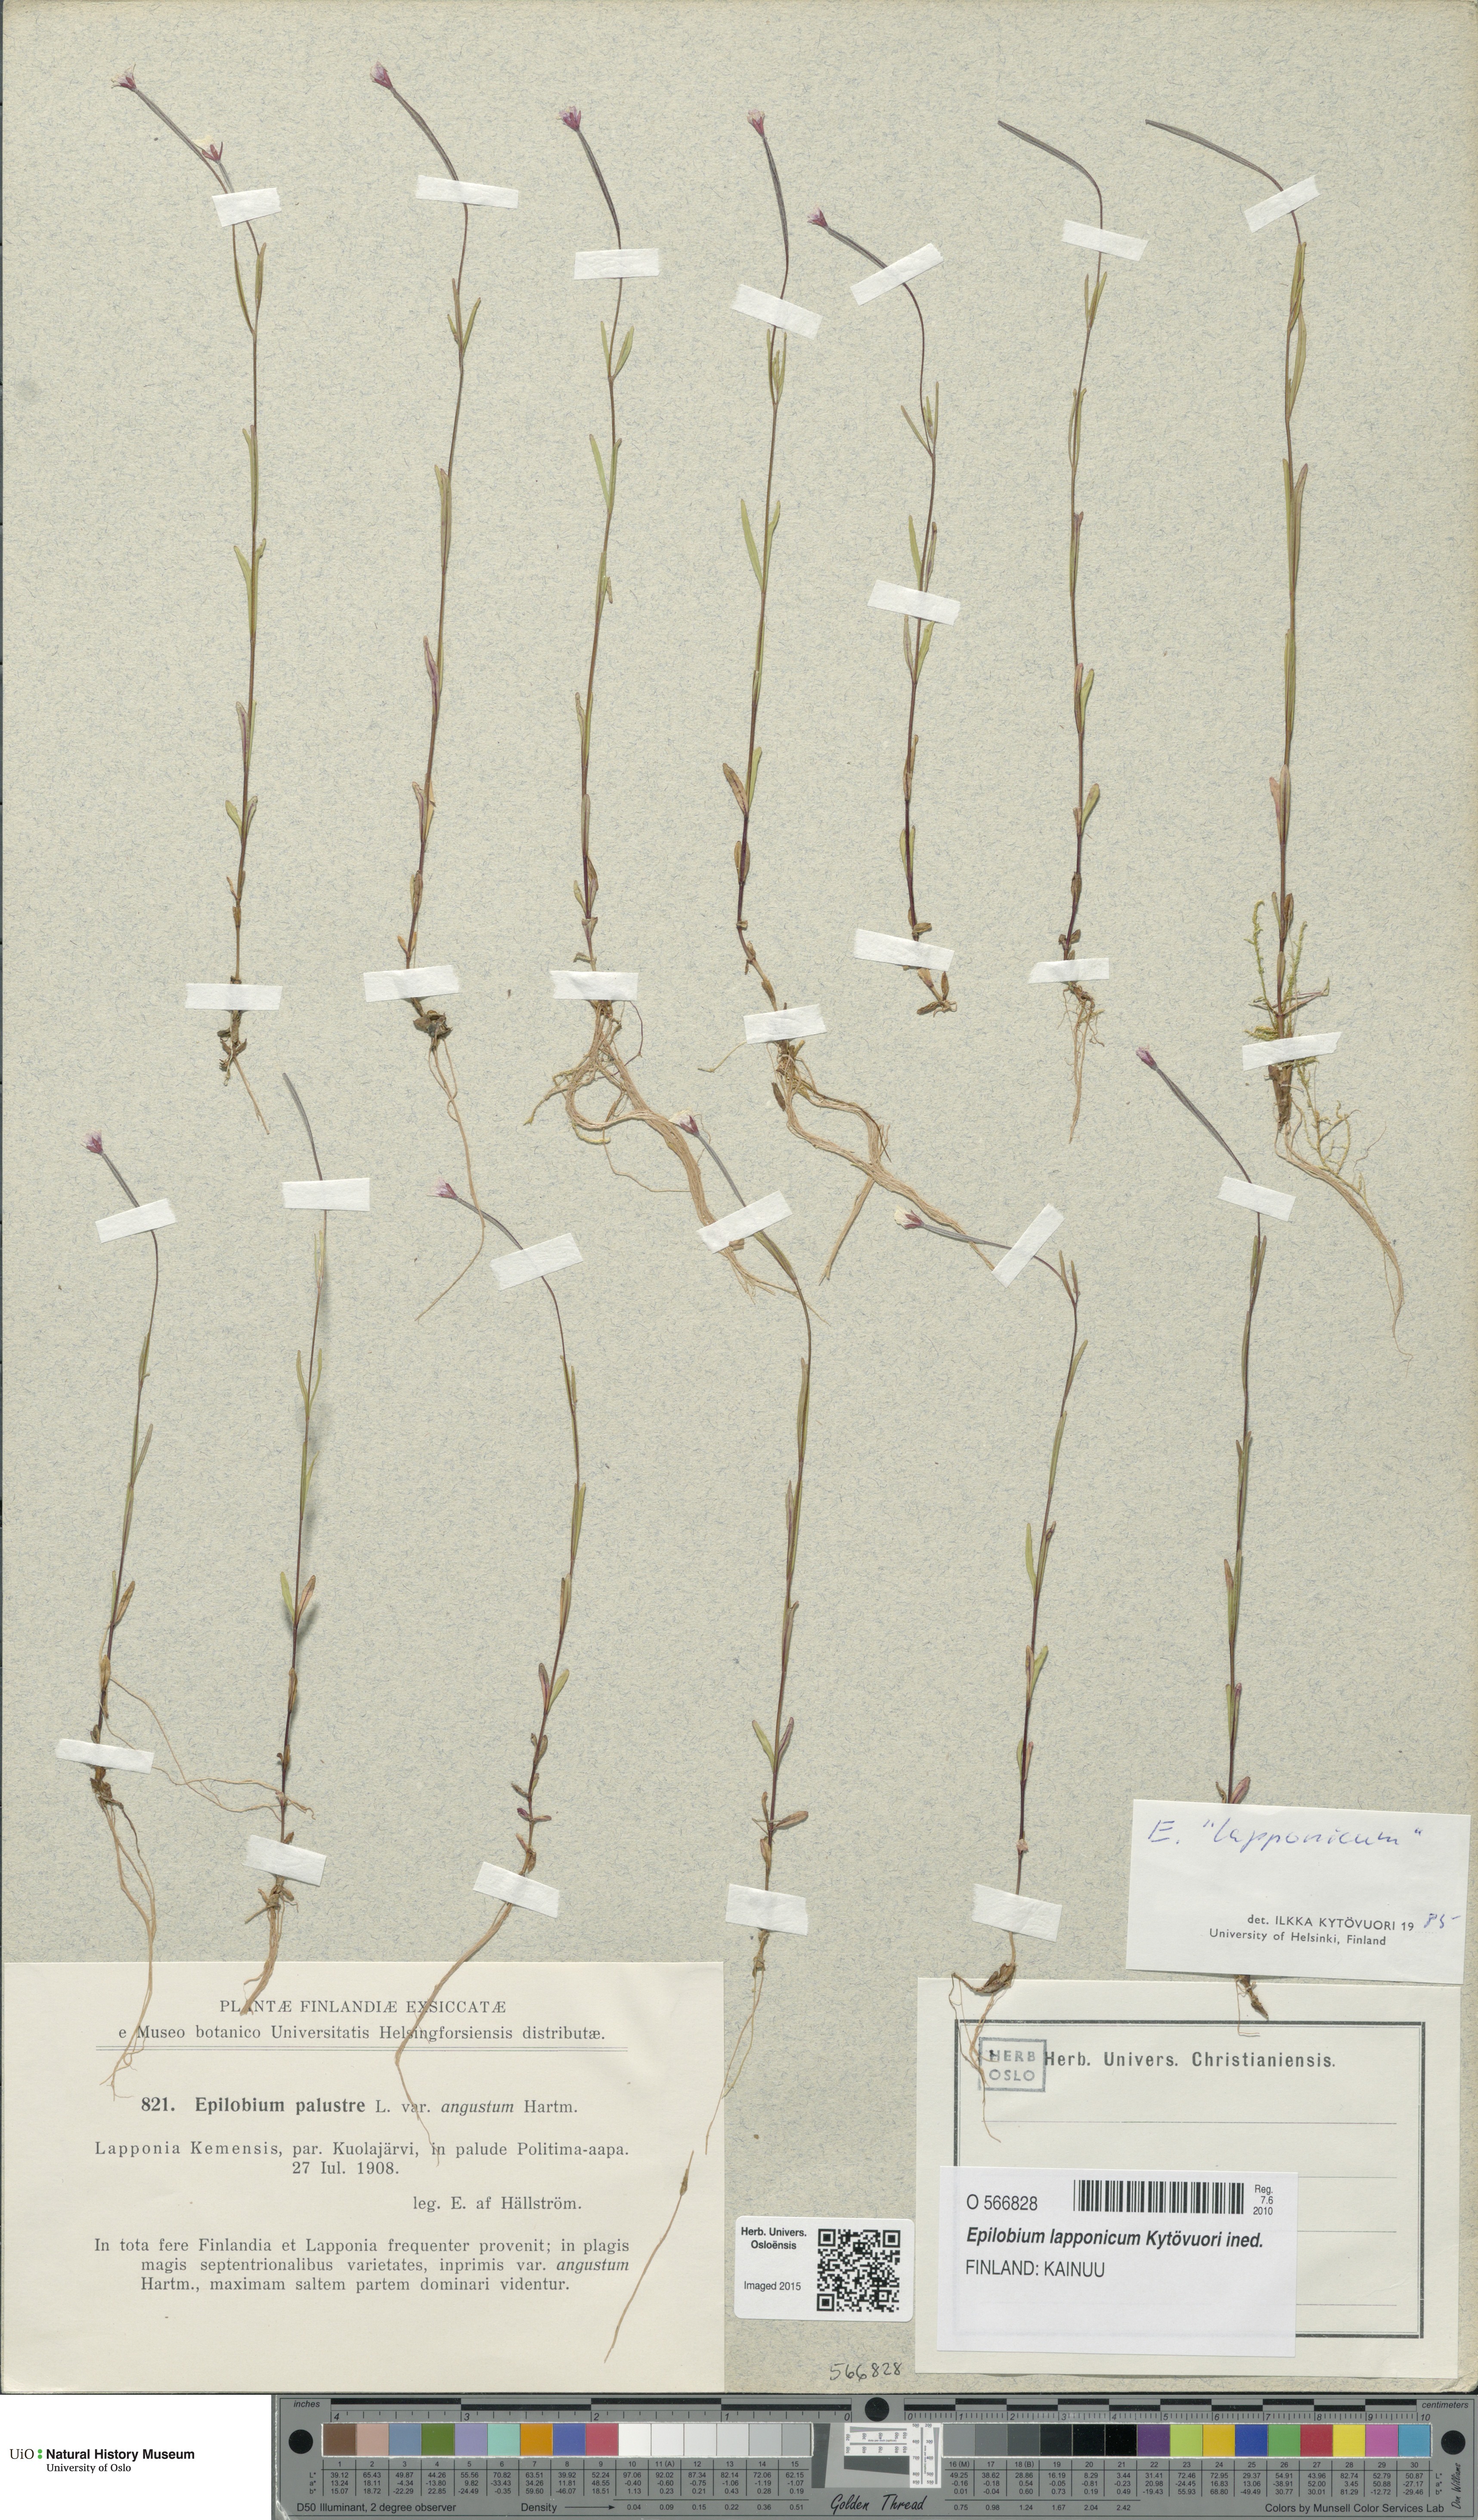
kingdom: Plantae
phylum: Tracheophyta
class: Magnoliopsida
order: Myrtales
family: Onagraceae
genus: Epilobium
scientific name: Epilobium palustre
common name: Marsh willowherb
